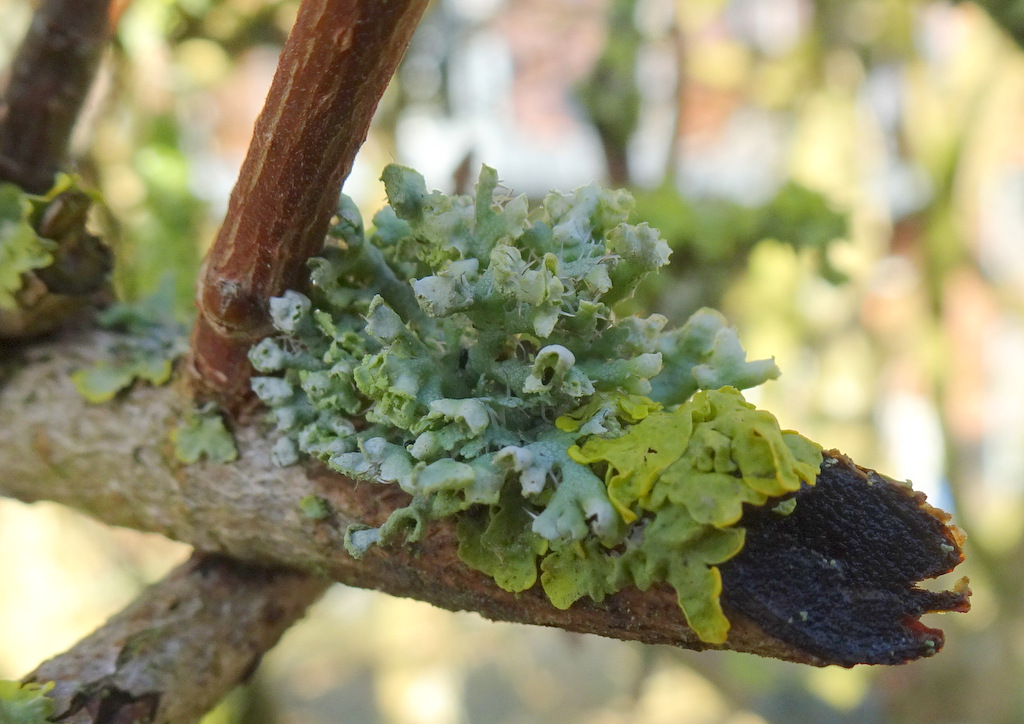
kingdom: Fungi
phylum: Ascomycota
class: Lecanoromycetes
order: Caliciales
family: Physciaceae
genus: Physcia
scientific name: Physcia adscendens
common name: hætte-rosetlav
